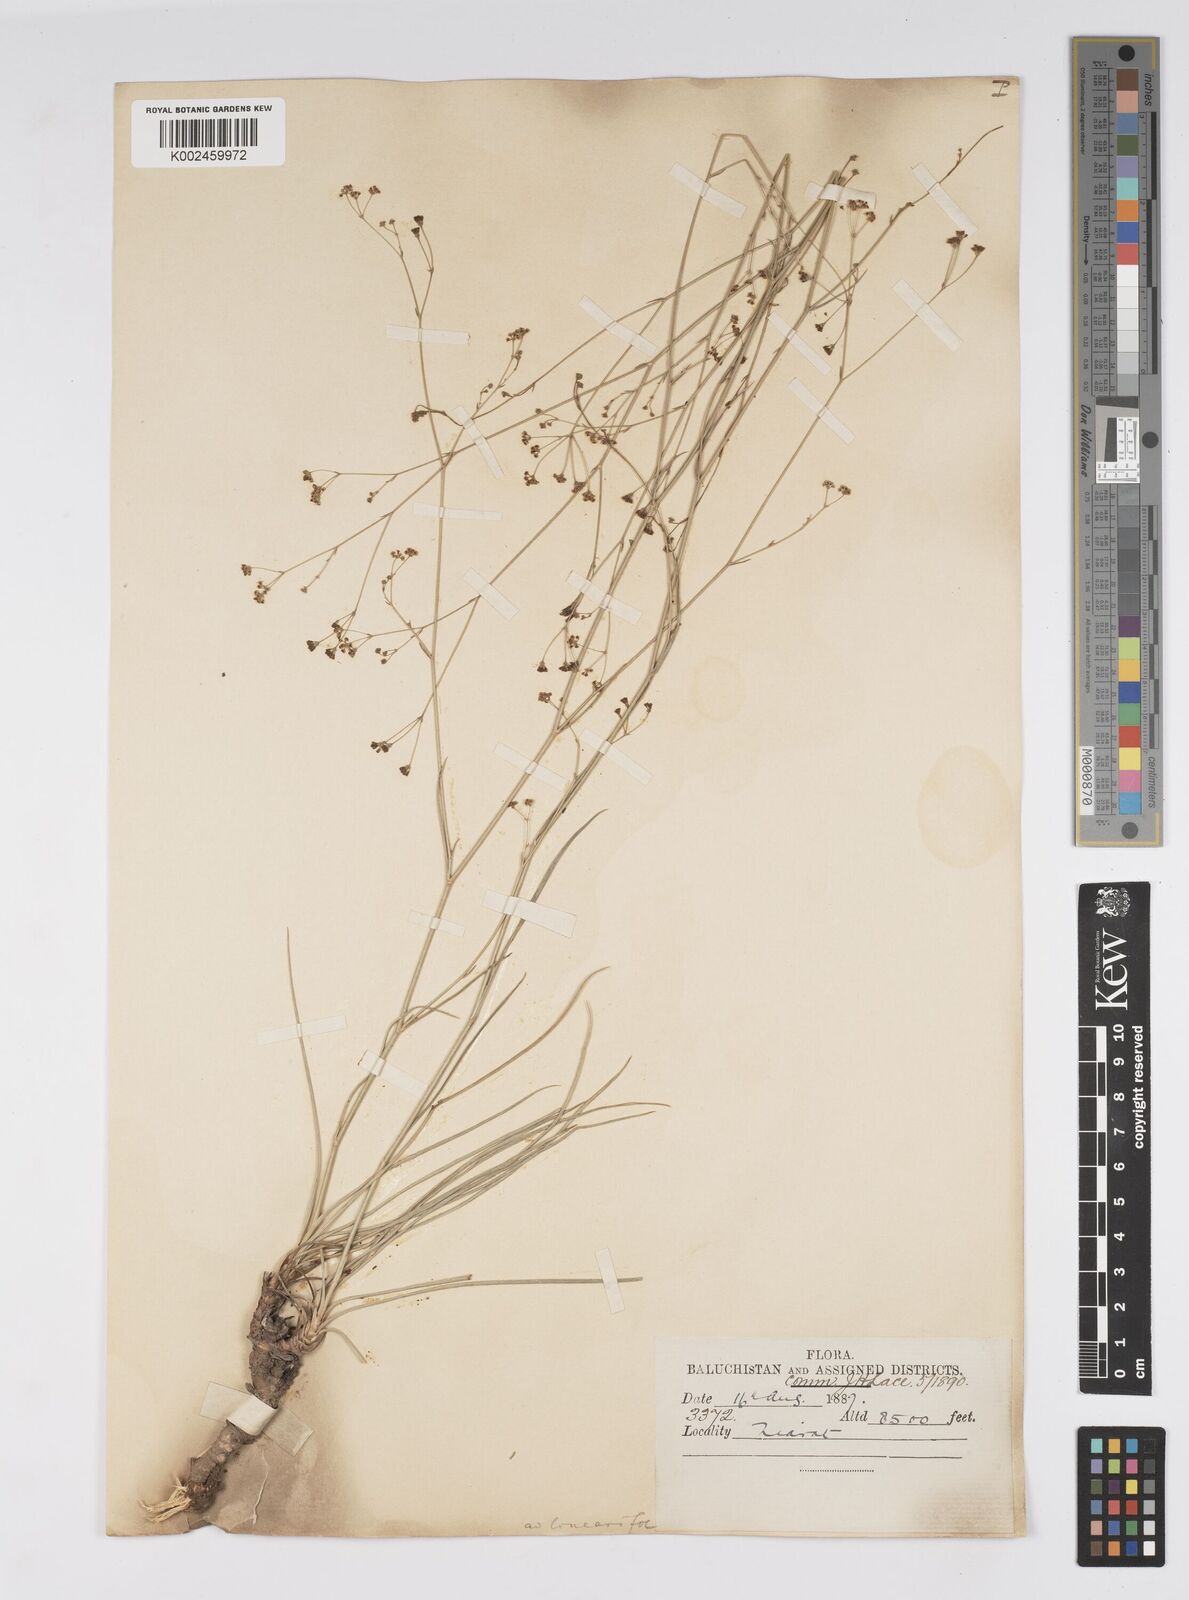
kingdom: Plantae
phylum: Tracheophyta
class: Magnoliopsida
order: Apiales
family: Apiaceae
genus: Bupleurum
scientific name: Bupleurum falcatum
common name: Sickle-leaved hare's-ear
